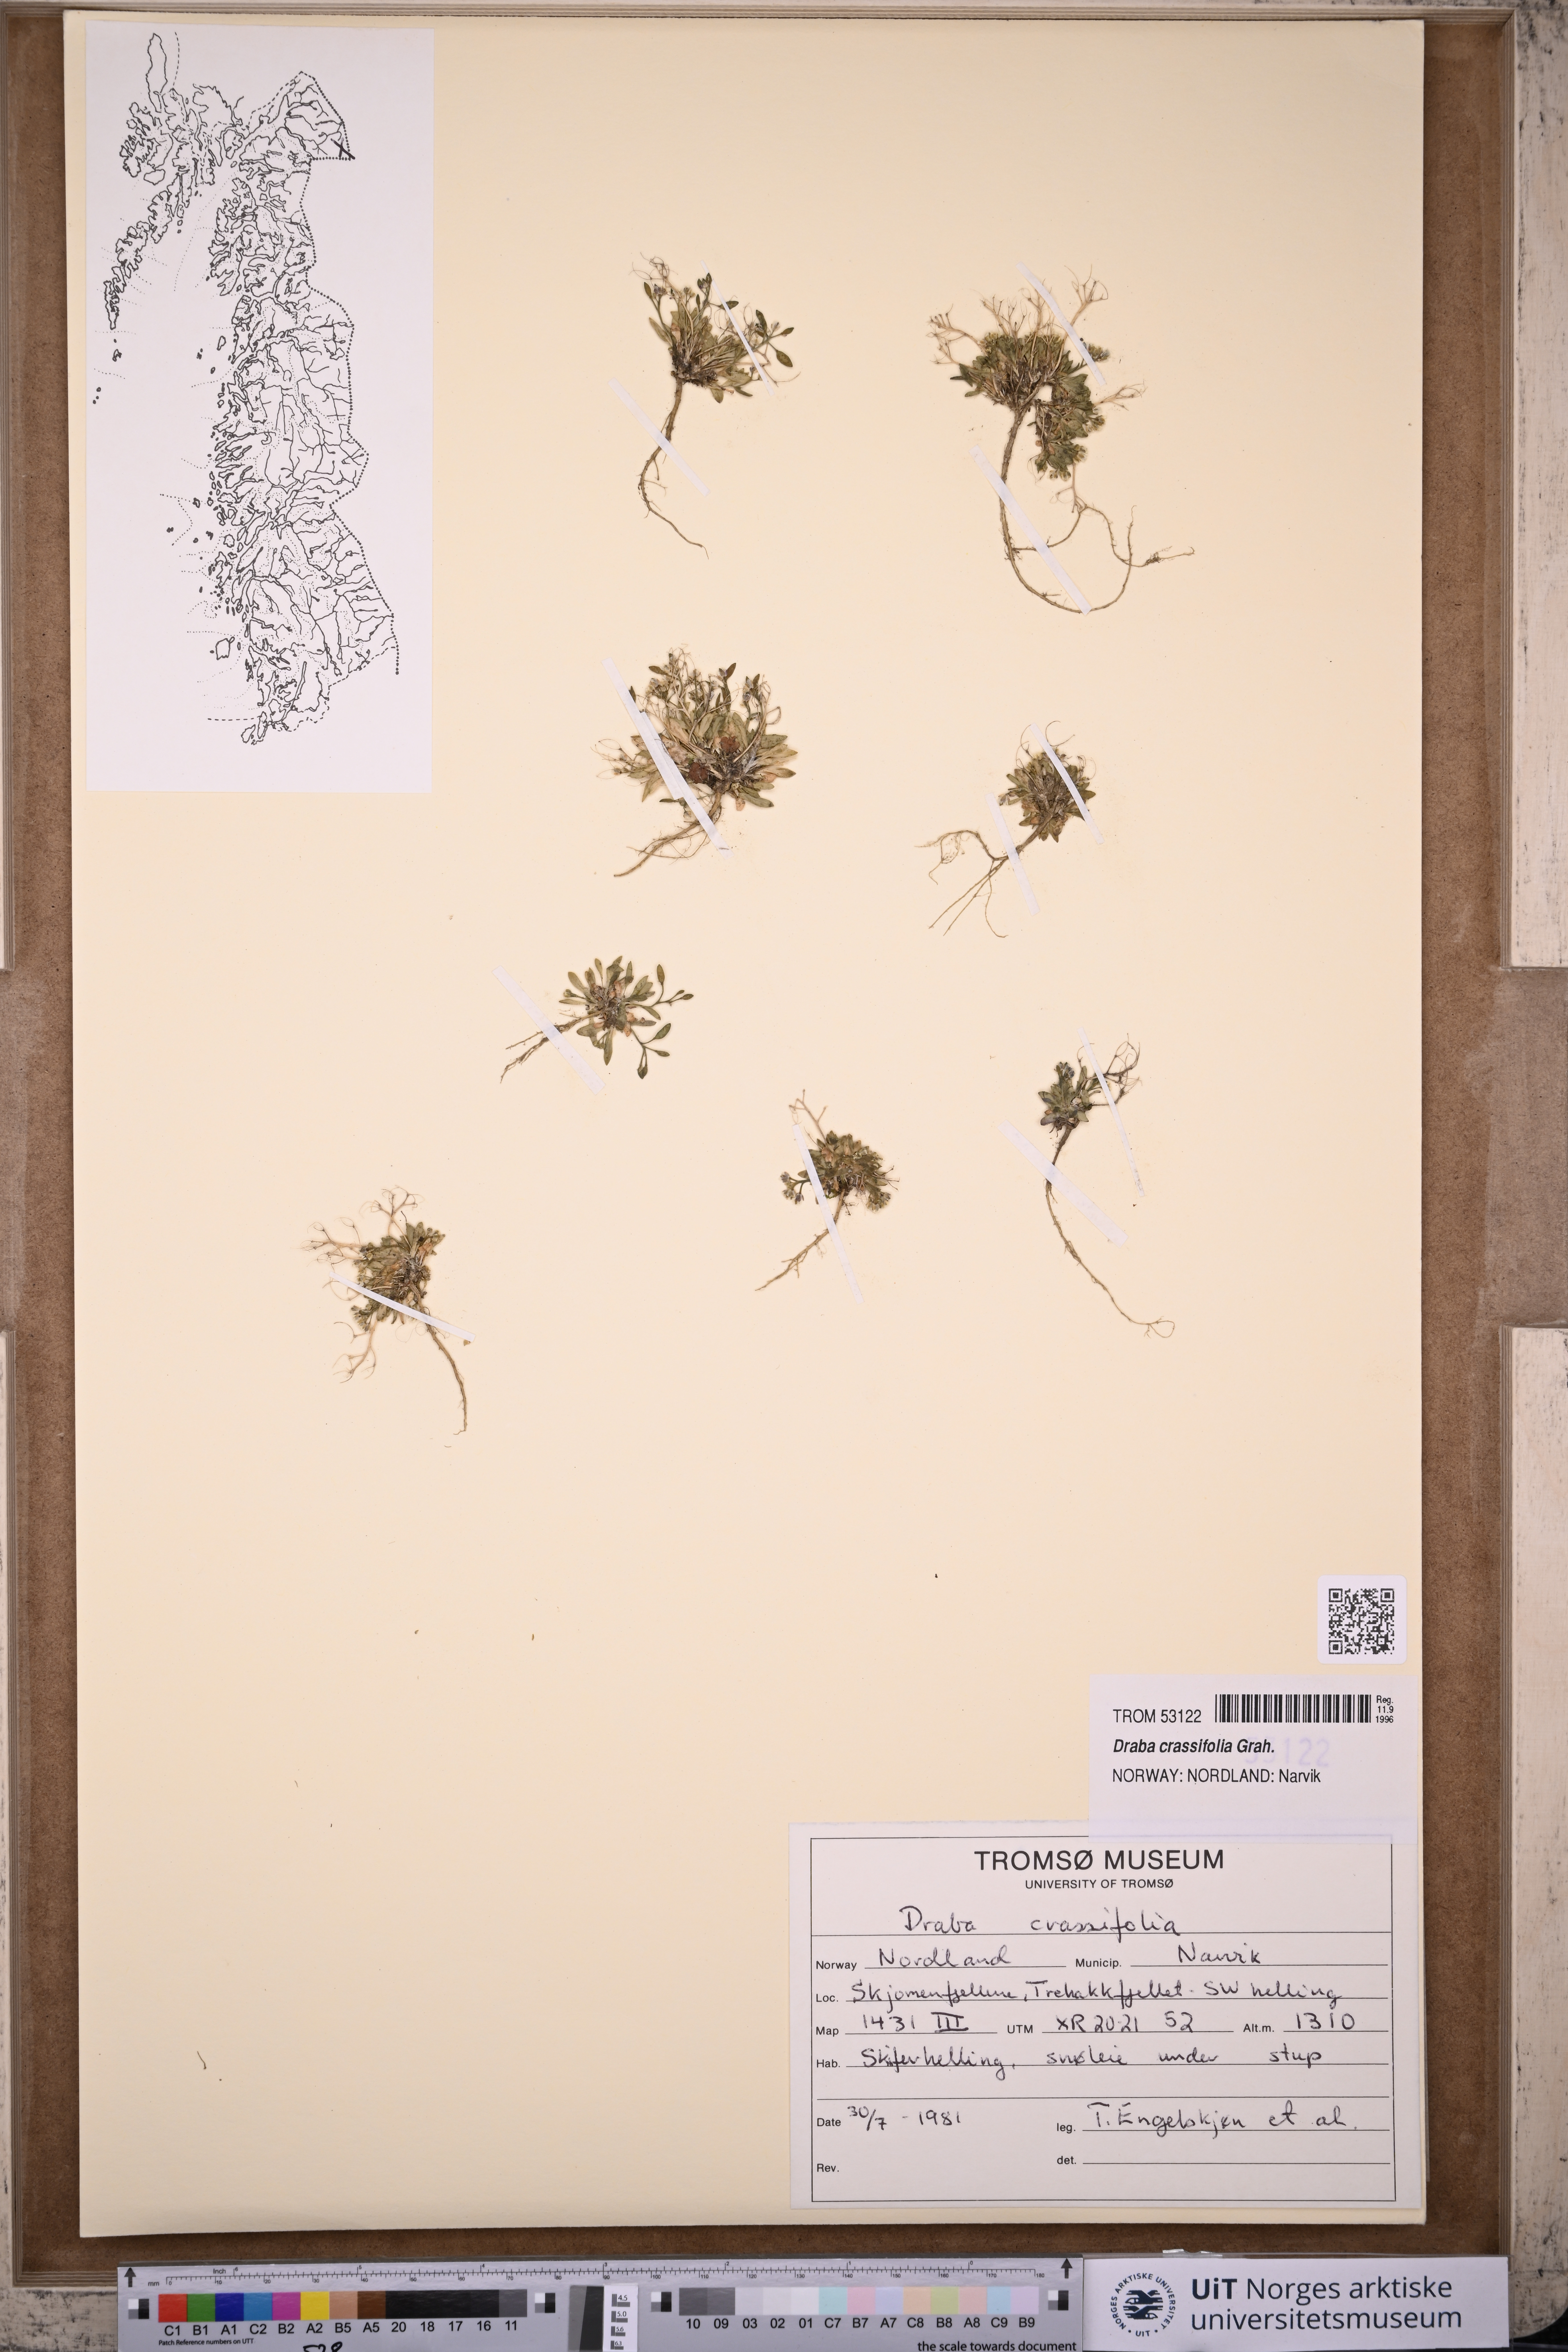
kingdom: Plantae
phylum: Tracheophyta
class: Magnoliopsida
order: Brassicales
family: Brassicaceae
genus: Draba
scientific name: Draba crassifolia
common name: Rocky mountain draba
